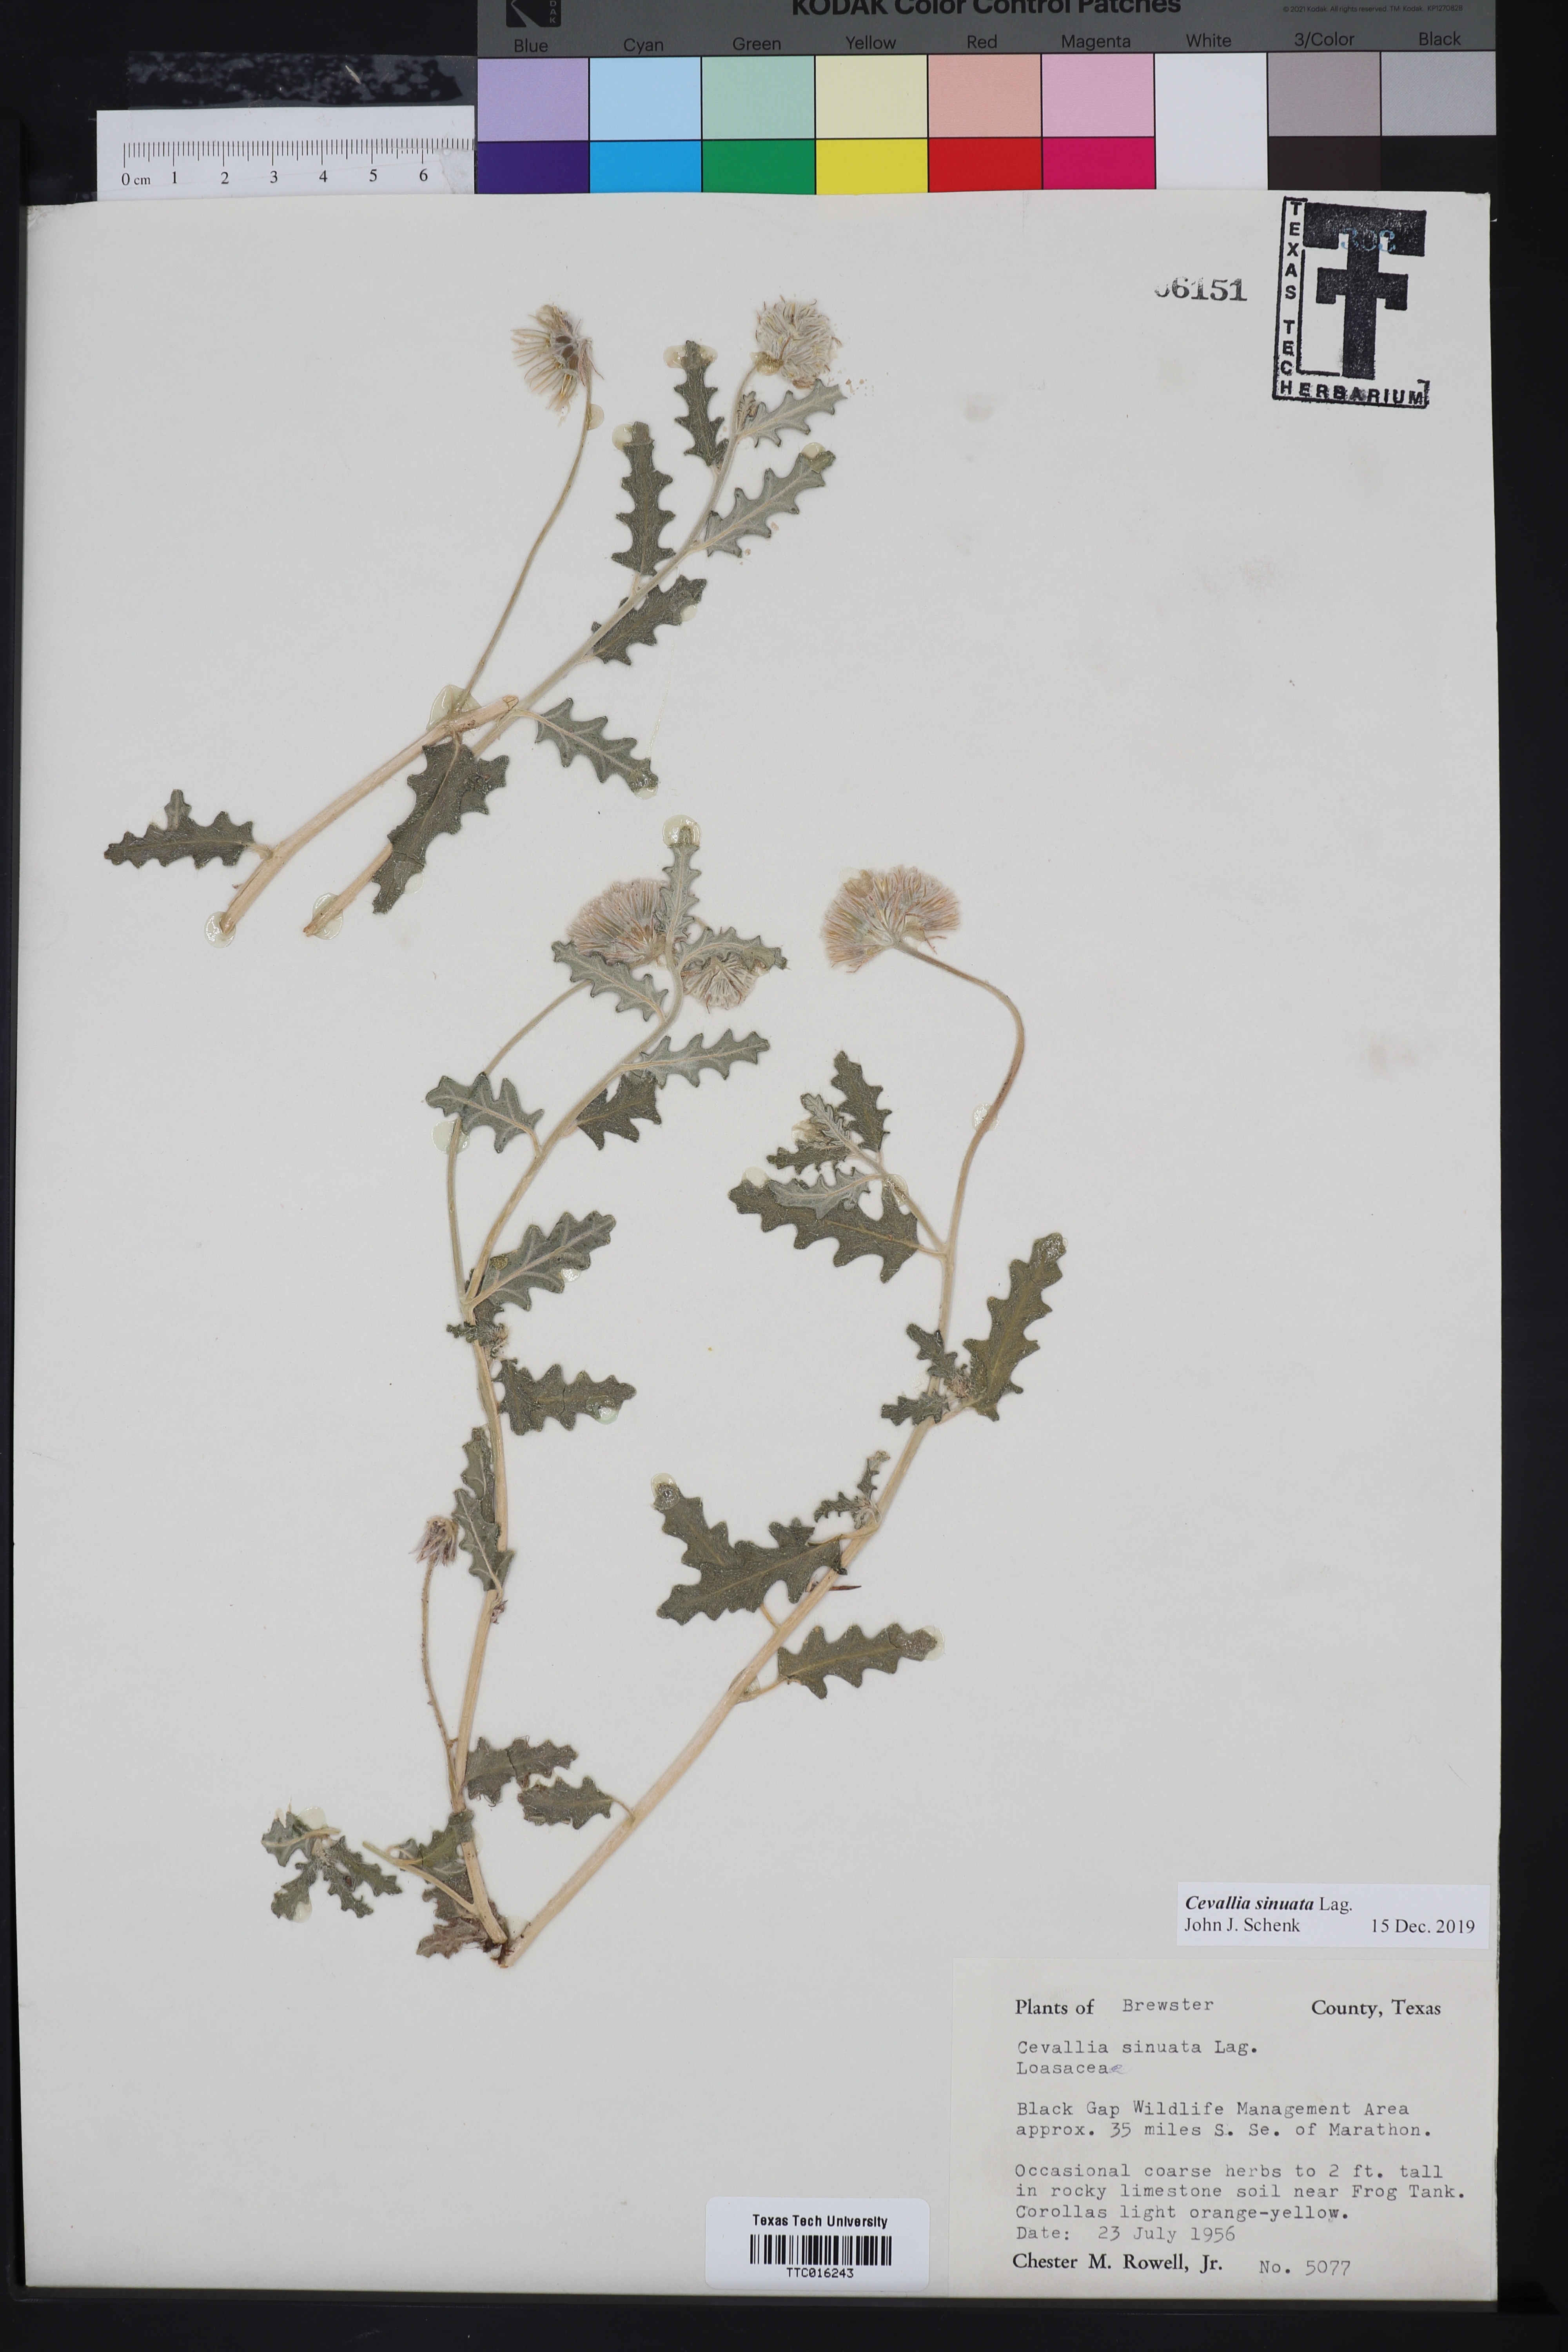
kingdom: Plantae
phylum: Tracheophyta
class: Magnoliopsida
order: Cornales
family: Loasaceae
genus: Cevallia
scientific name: Cevallia sinuata
